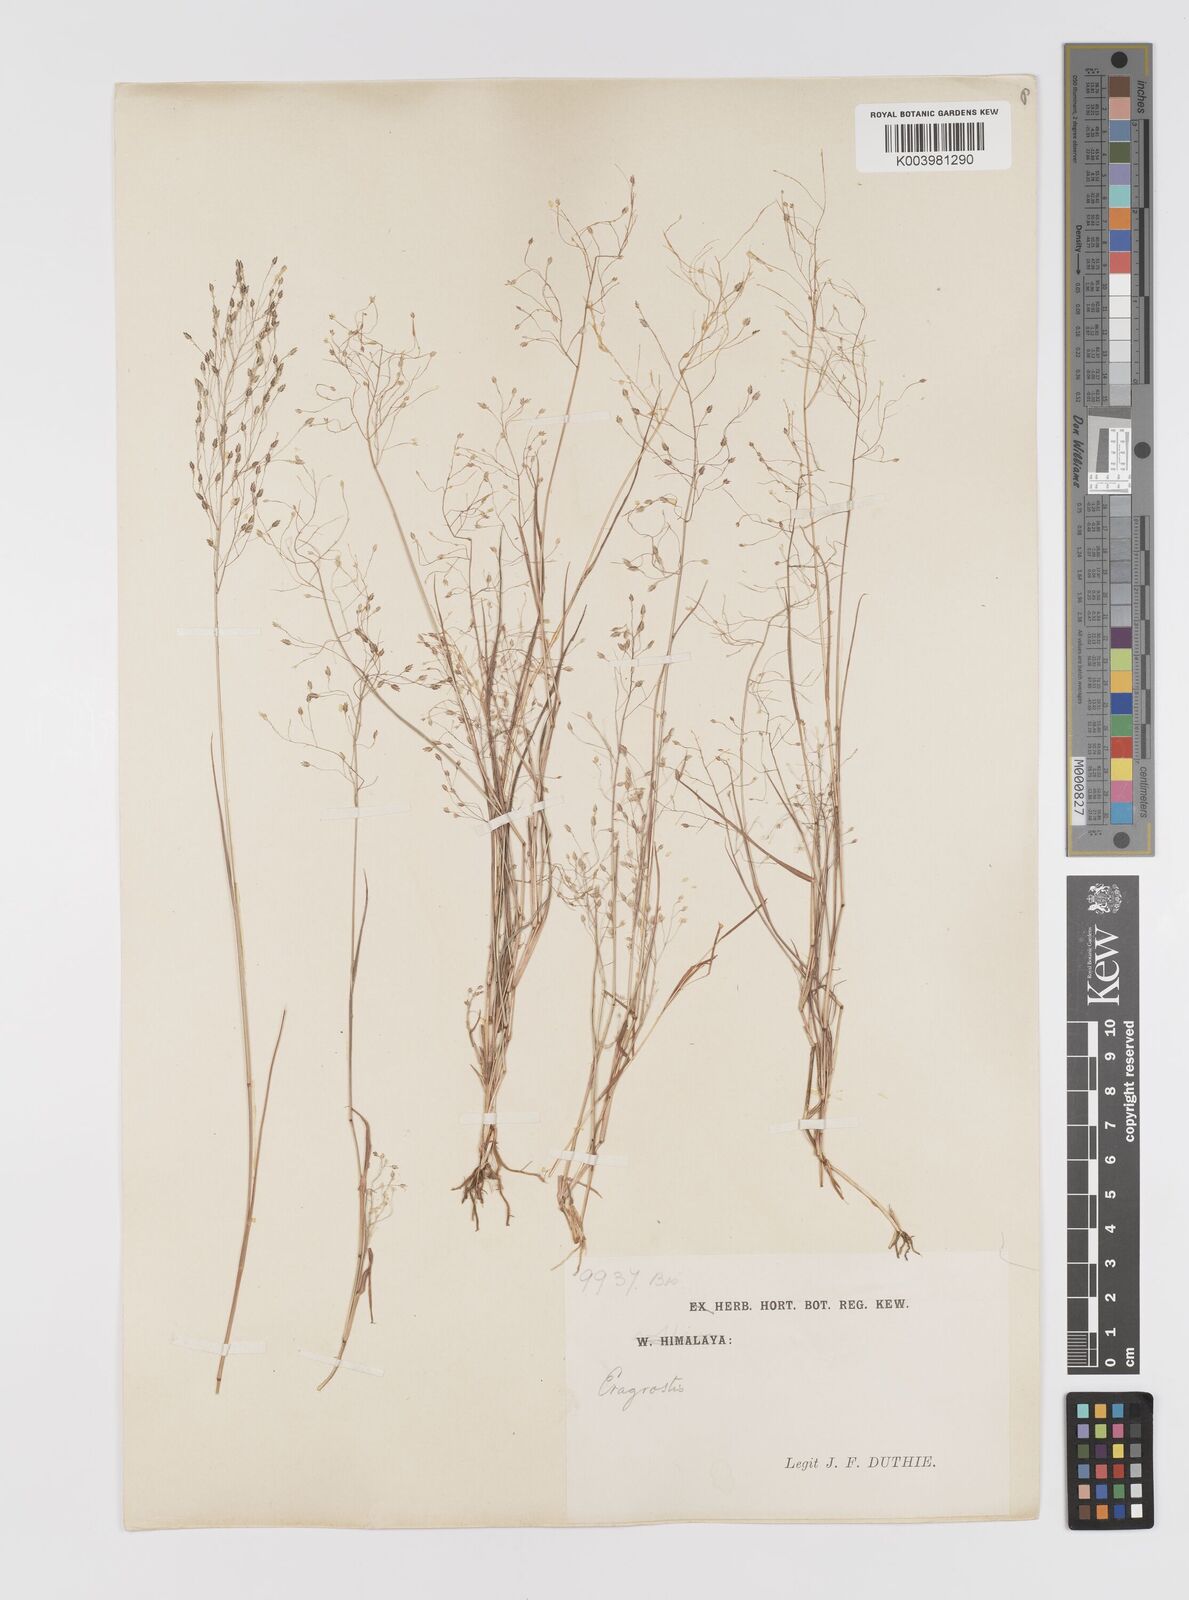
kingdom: Plantae
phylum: Tracheophyta
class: Liliopsida
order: Poales
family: Poaceae
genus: Eragrostis
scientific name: Eragrostis gangetica
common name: Slimflower lovegrass
